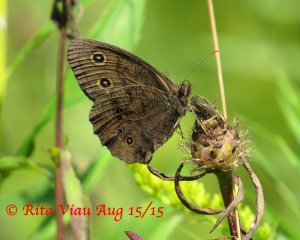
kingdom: Animalia
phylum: Arthropoda
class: Insecta
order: Lepidoptera
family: Nymphalidae
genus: Cercyonis
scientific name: Cercyonis pegala
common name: Common Wood-Nymph
